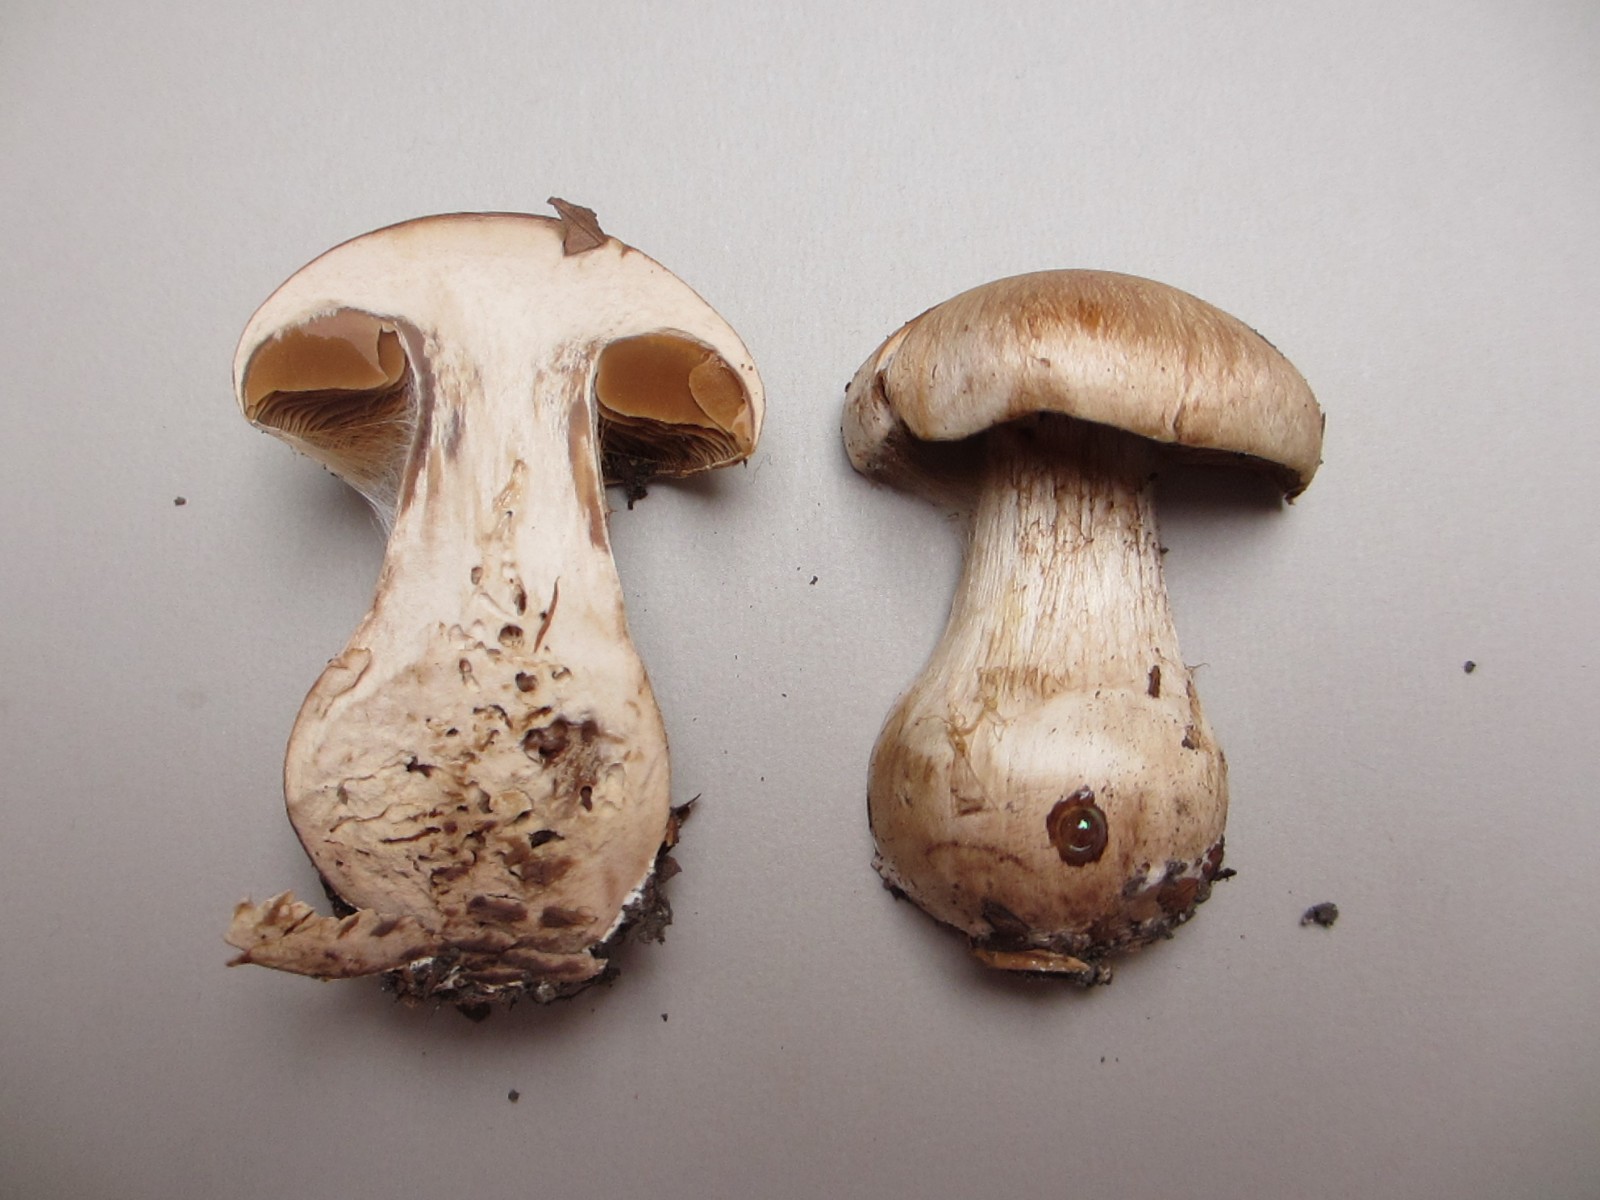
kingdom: Fungi
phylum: Basidiomycota
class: Agaricomycetes
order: Agaricales
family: Cortinariaceae
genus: Cortinarius
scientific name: Cortinarius turgidus
